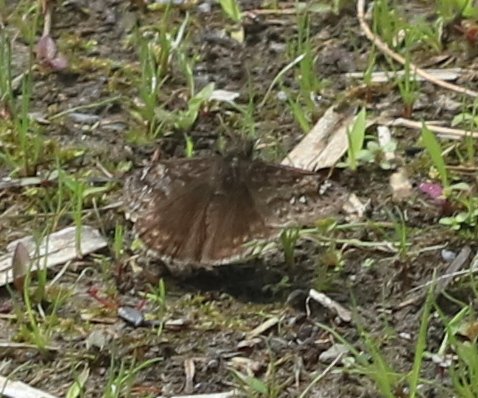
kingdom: Animalia
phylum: Arthropoda
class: Insecta
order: Lepidoptera
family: Hesperiidae
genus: Gesta
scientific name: Gesta
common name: Juvenal's Duskywing
